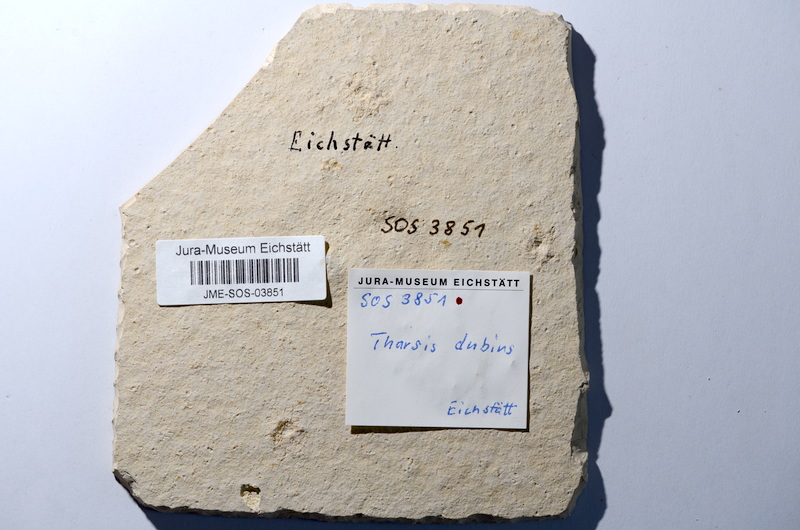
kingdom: Animalia
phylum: Chordata
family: Ascalaboidae
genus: Tharsis
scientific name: Tharsis dubius
